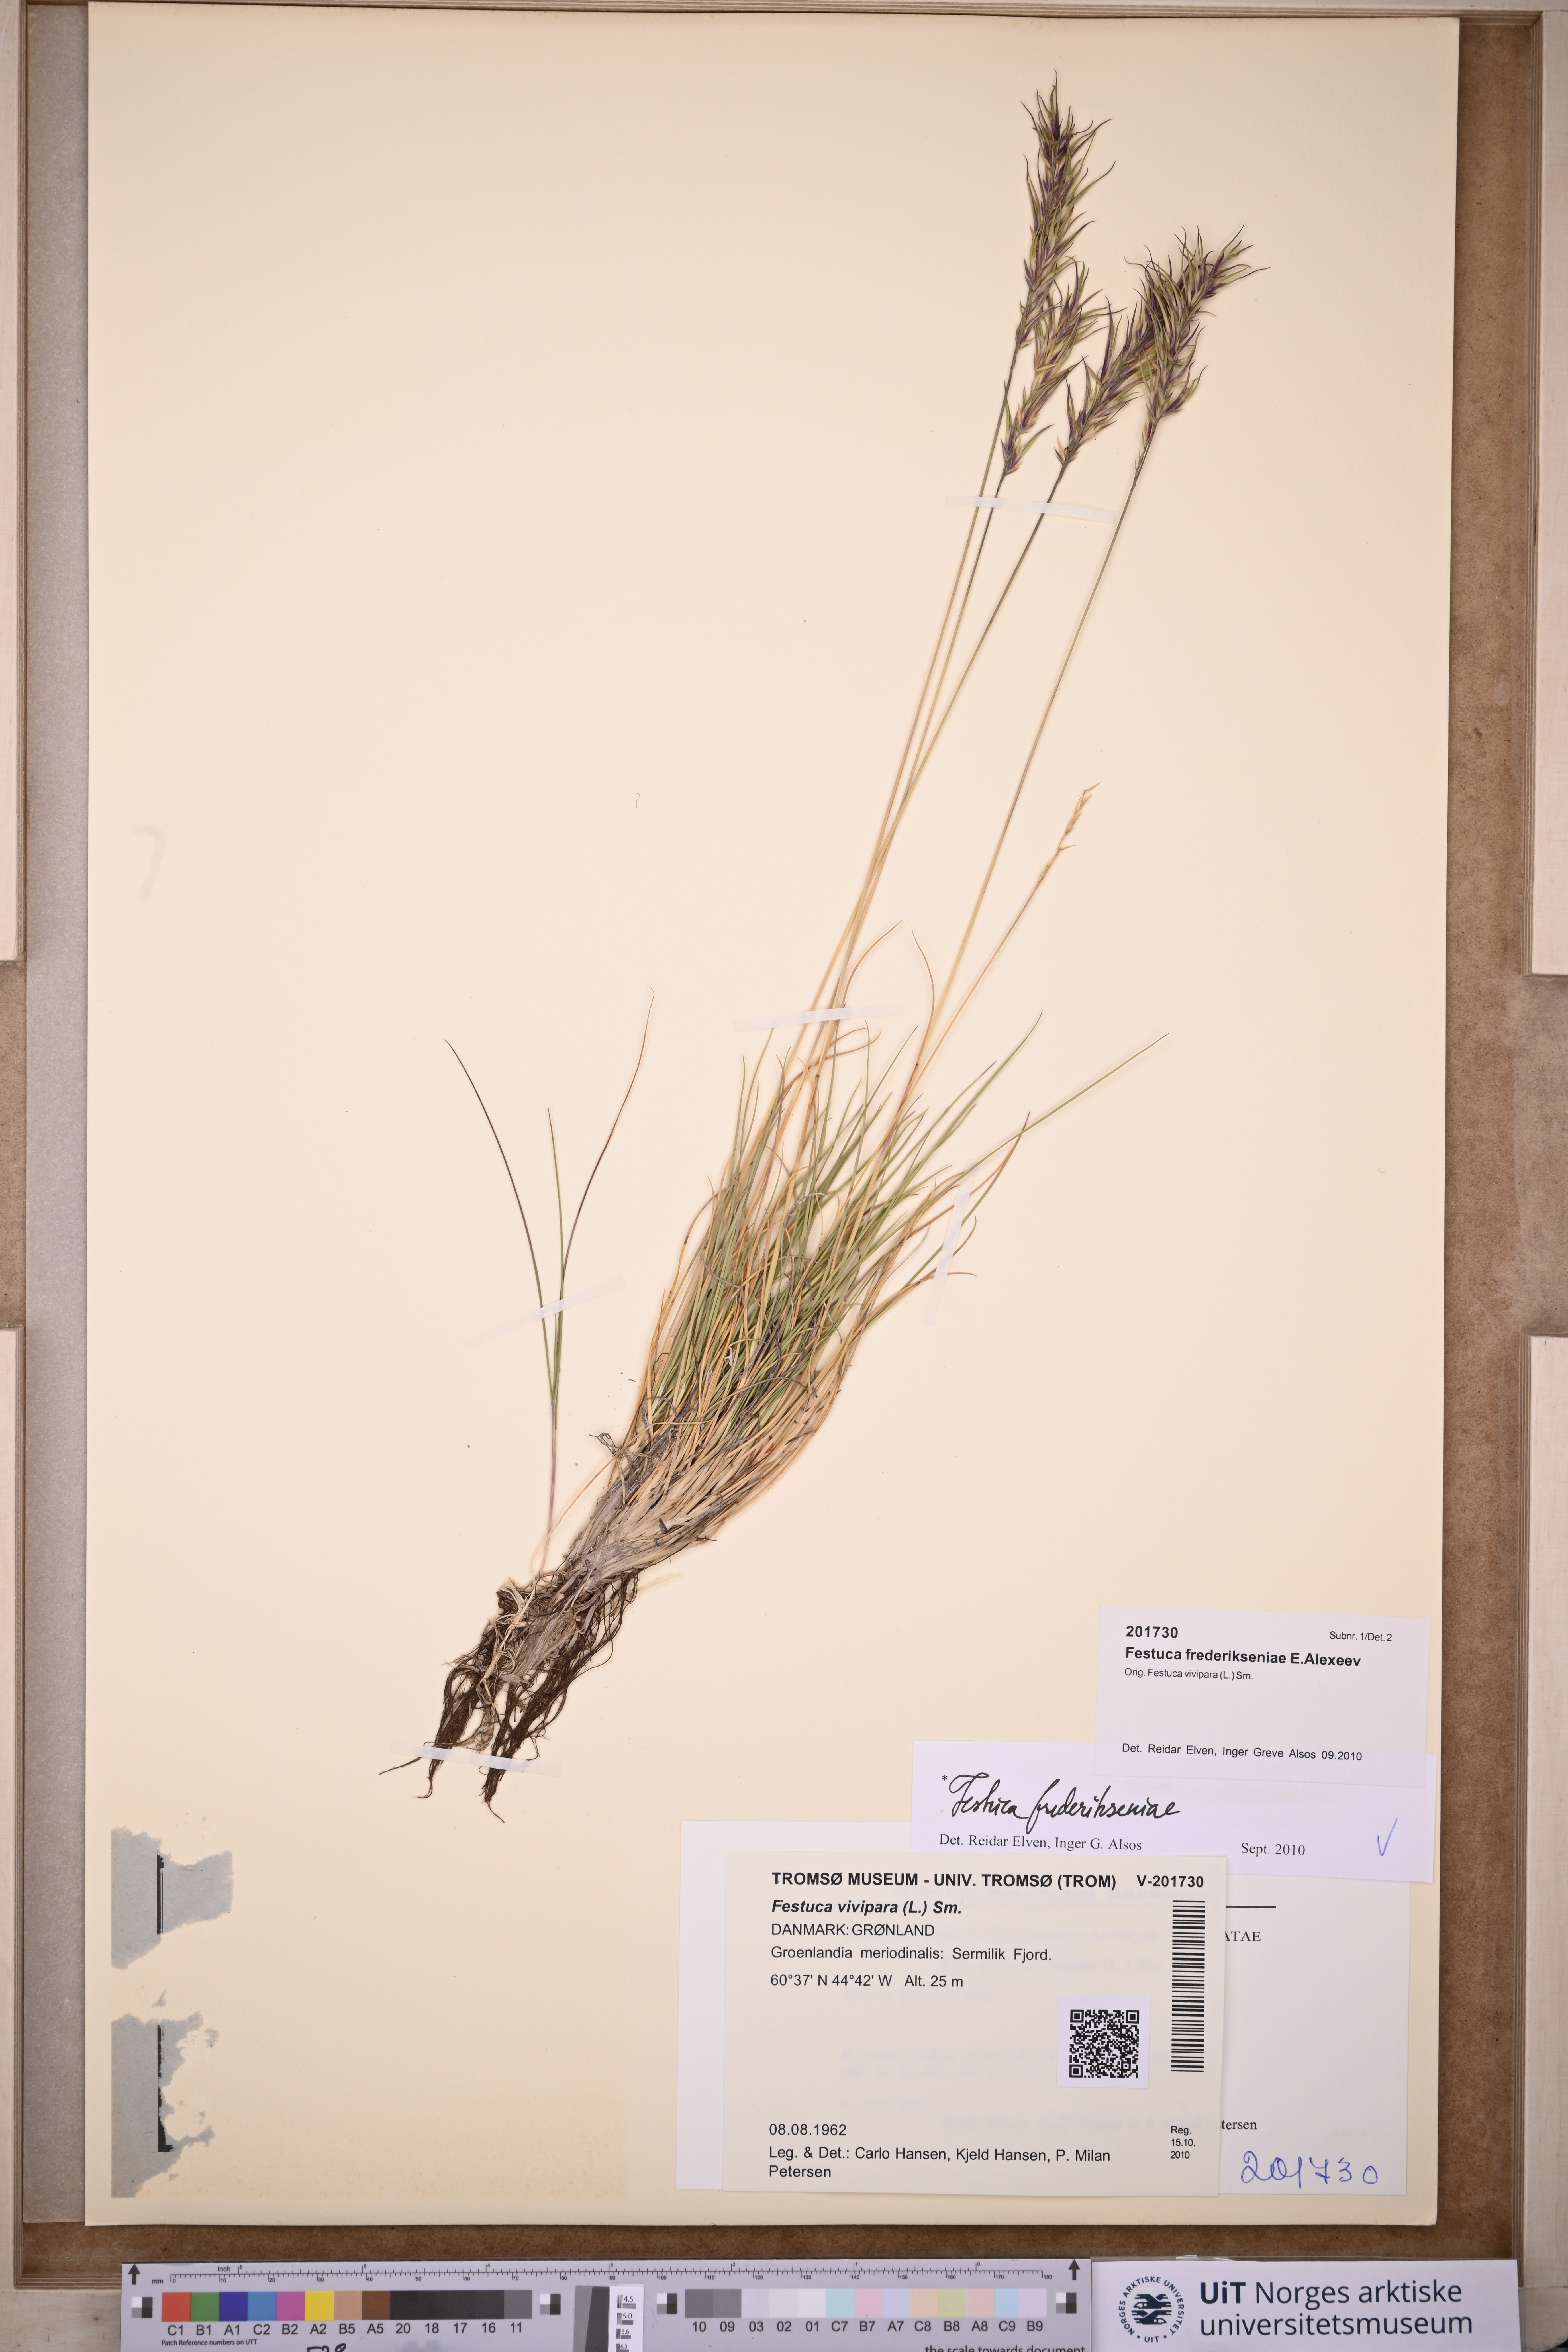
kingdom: Plantae
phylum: Tracheophyta
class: Liliopsida
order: Poales
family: Poaceae
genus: Festuca
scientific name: Festuca frederikseniae
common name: Frederiksen's fescue
